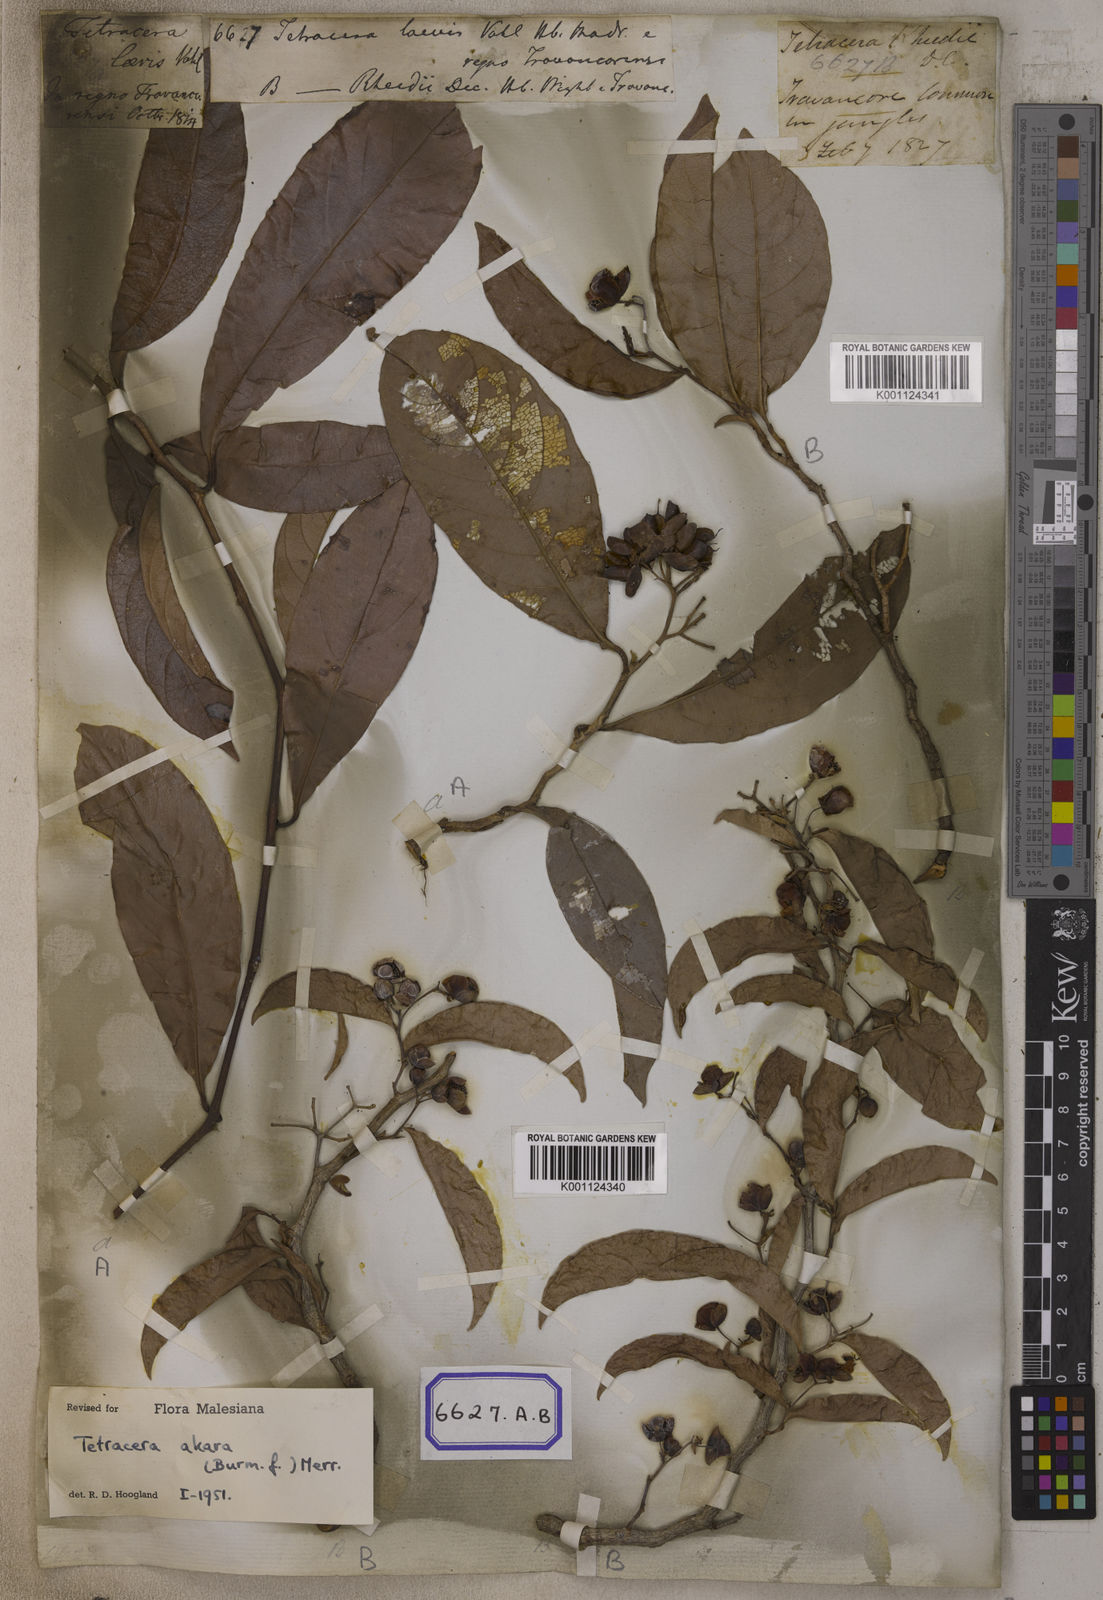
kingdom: Plantae
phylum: Tracheophyta
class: Magnoliopsida
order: Dilleniales
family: Dilleniaceae
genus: Tetracera
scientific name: Tetracera indica
